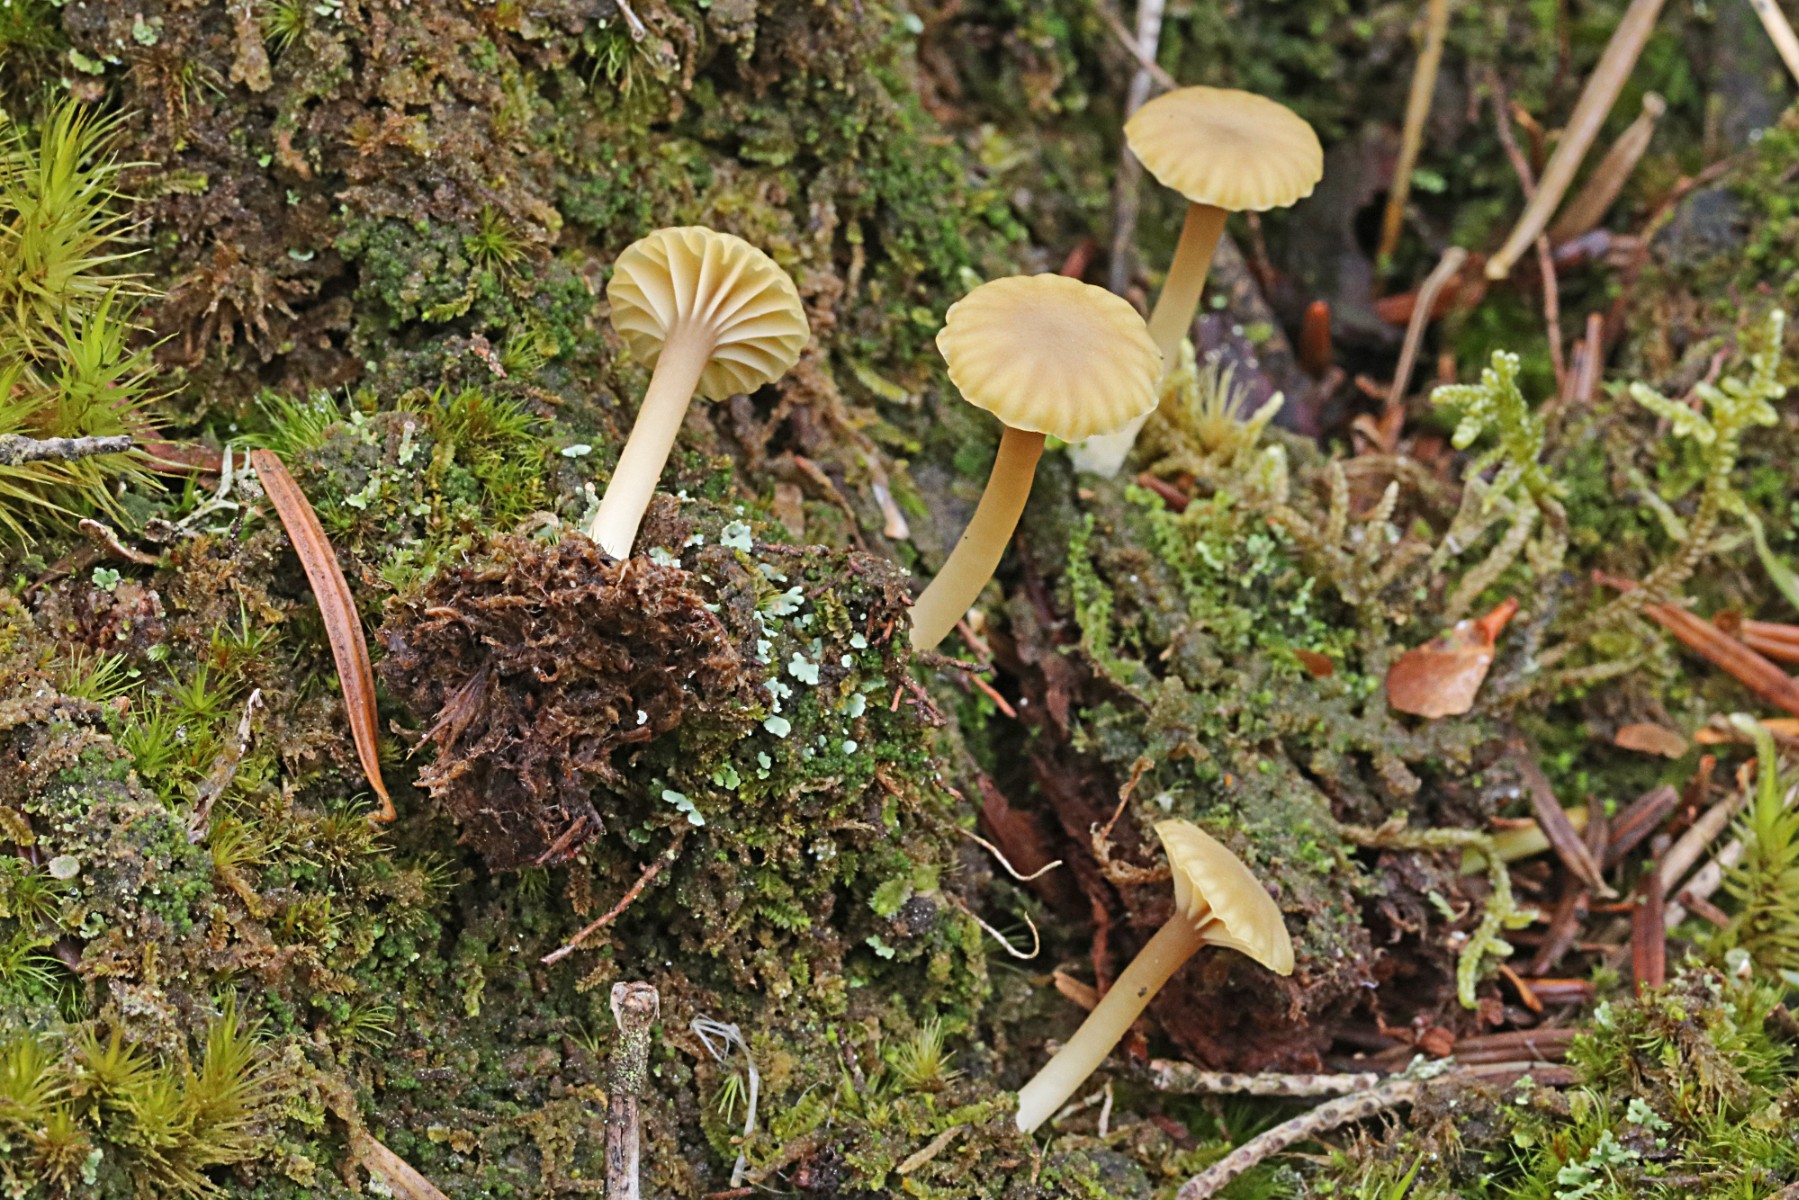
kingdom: Fungi
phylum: Basidiomycota
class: Agaricomycetes
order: Agaricales
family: Hygrophoraceae
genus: Lichenomphalia
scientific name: Lichenomphalia umbellifera
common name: tørve-lavhat
